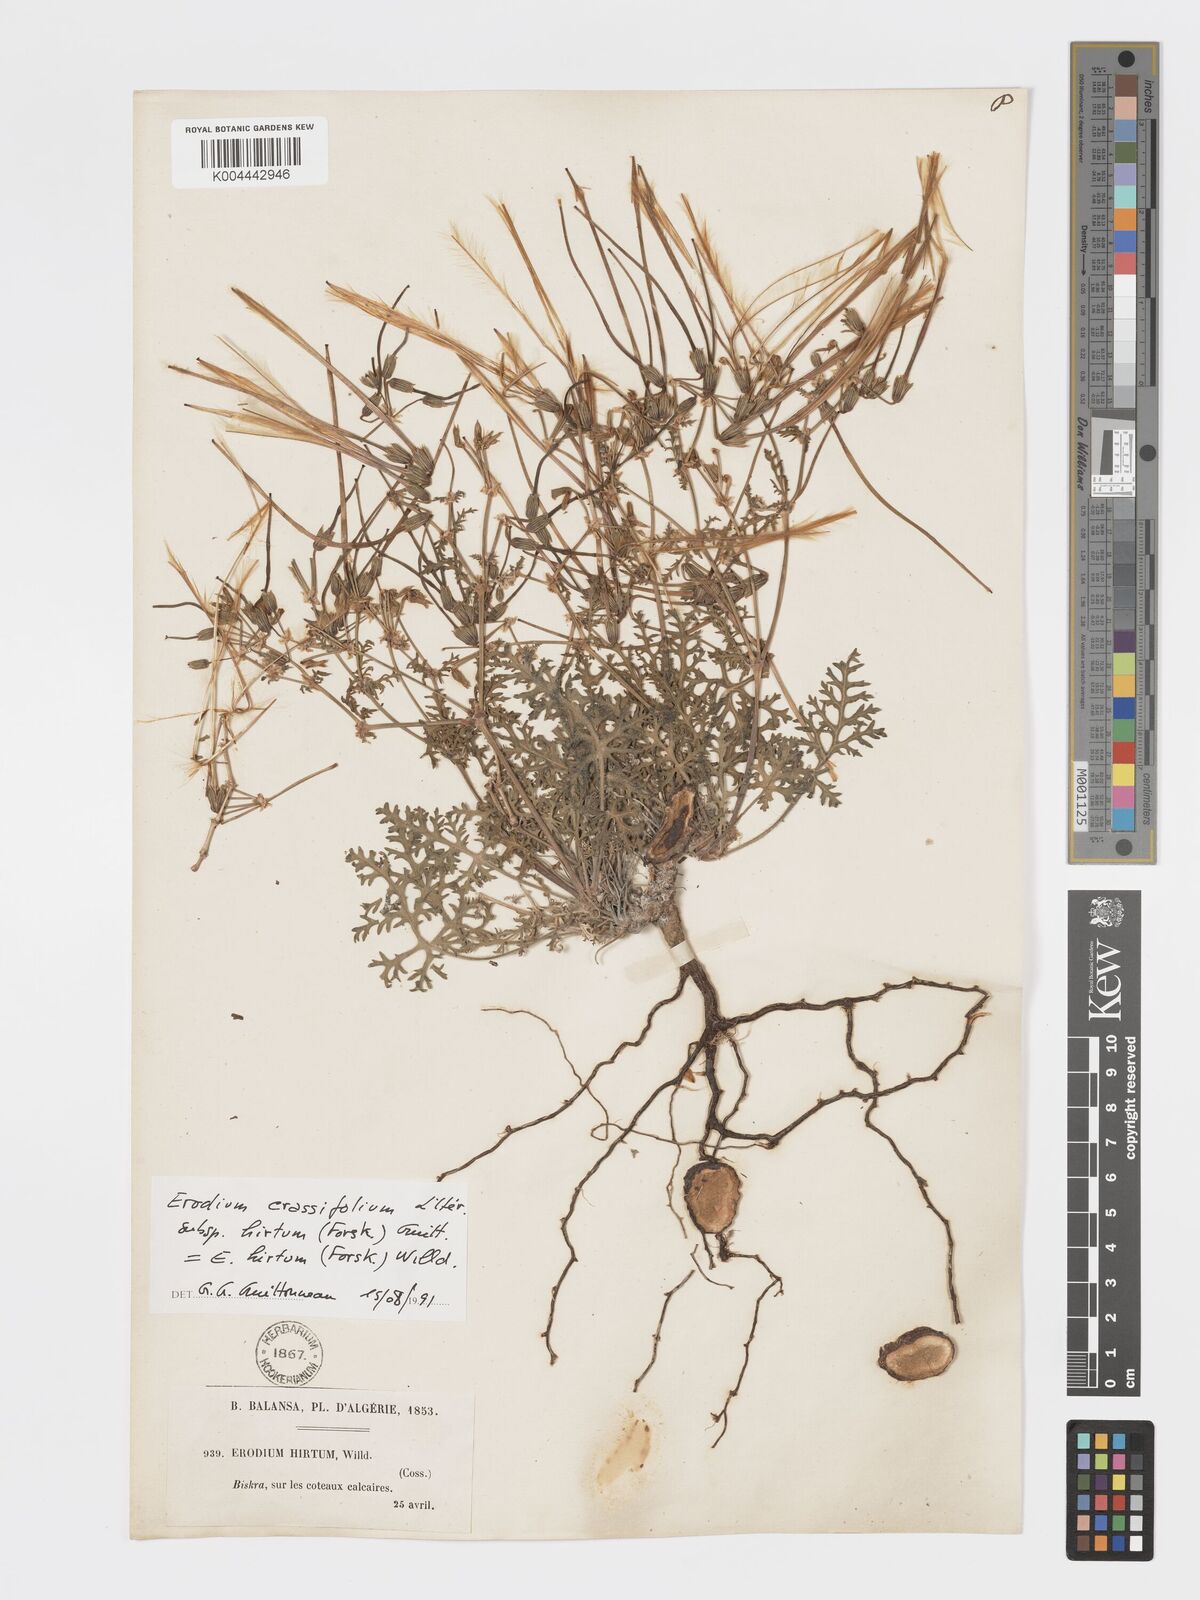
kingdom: Plantae
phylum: Tracheophyta
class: Magnoliopsida
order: Geraniales
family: Geraniaceae
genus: Erodium
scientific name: Erodium crassifolium
